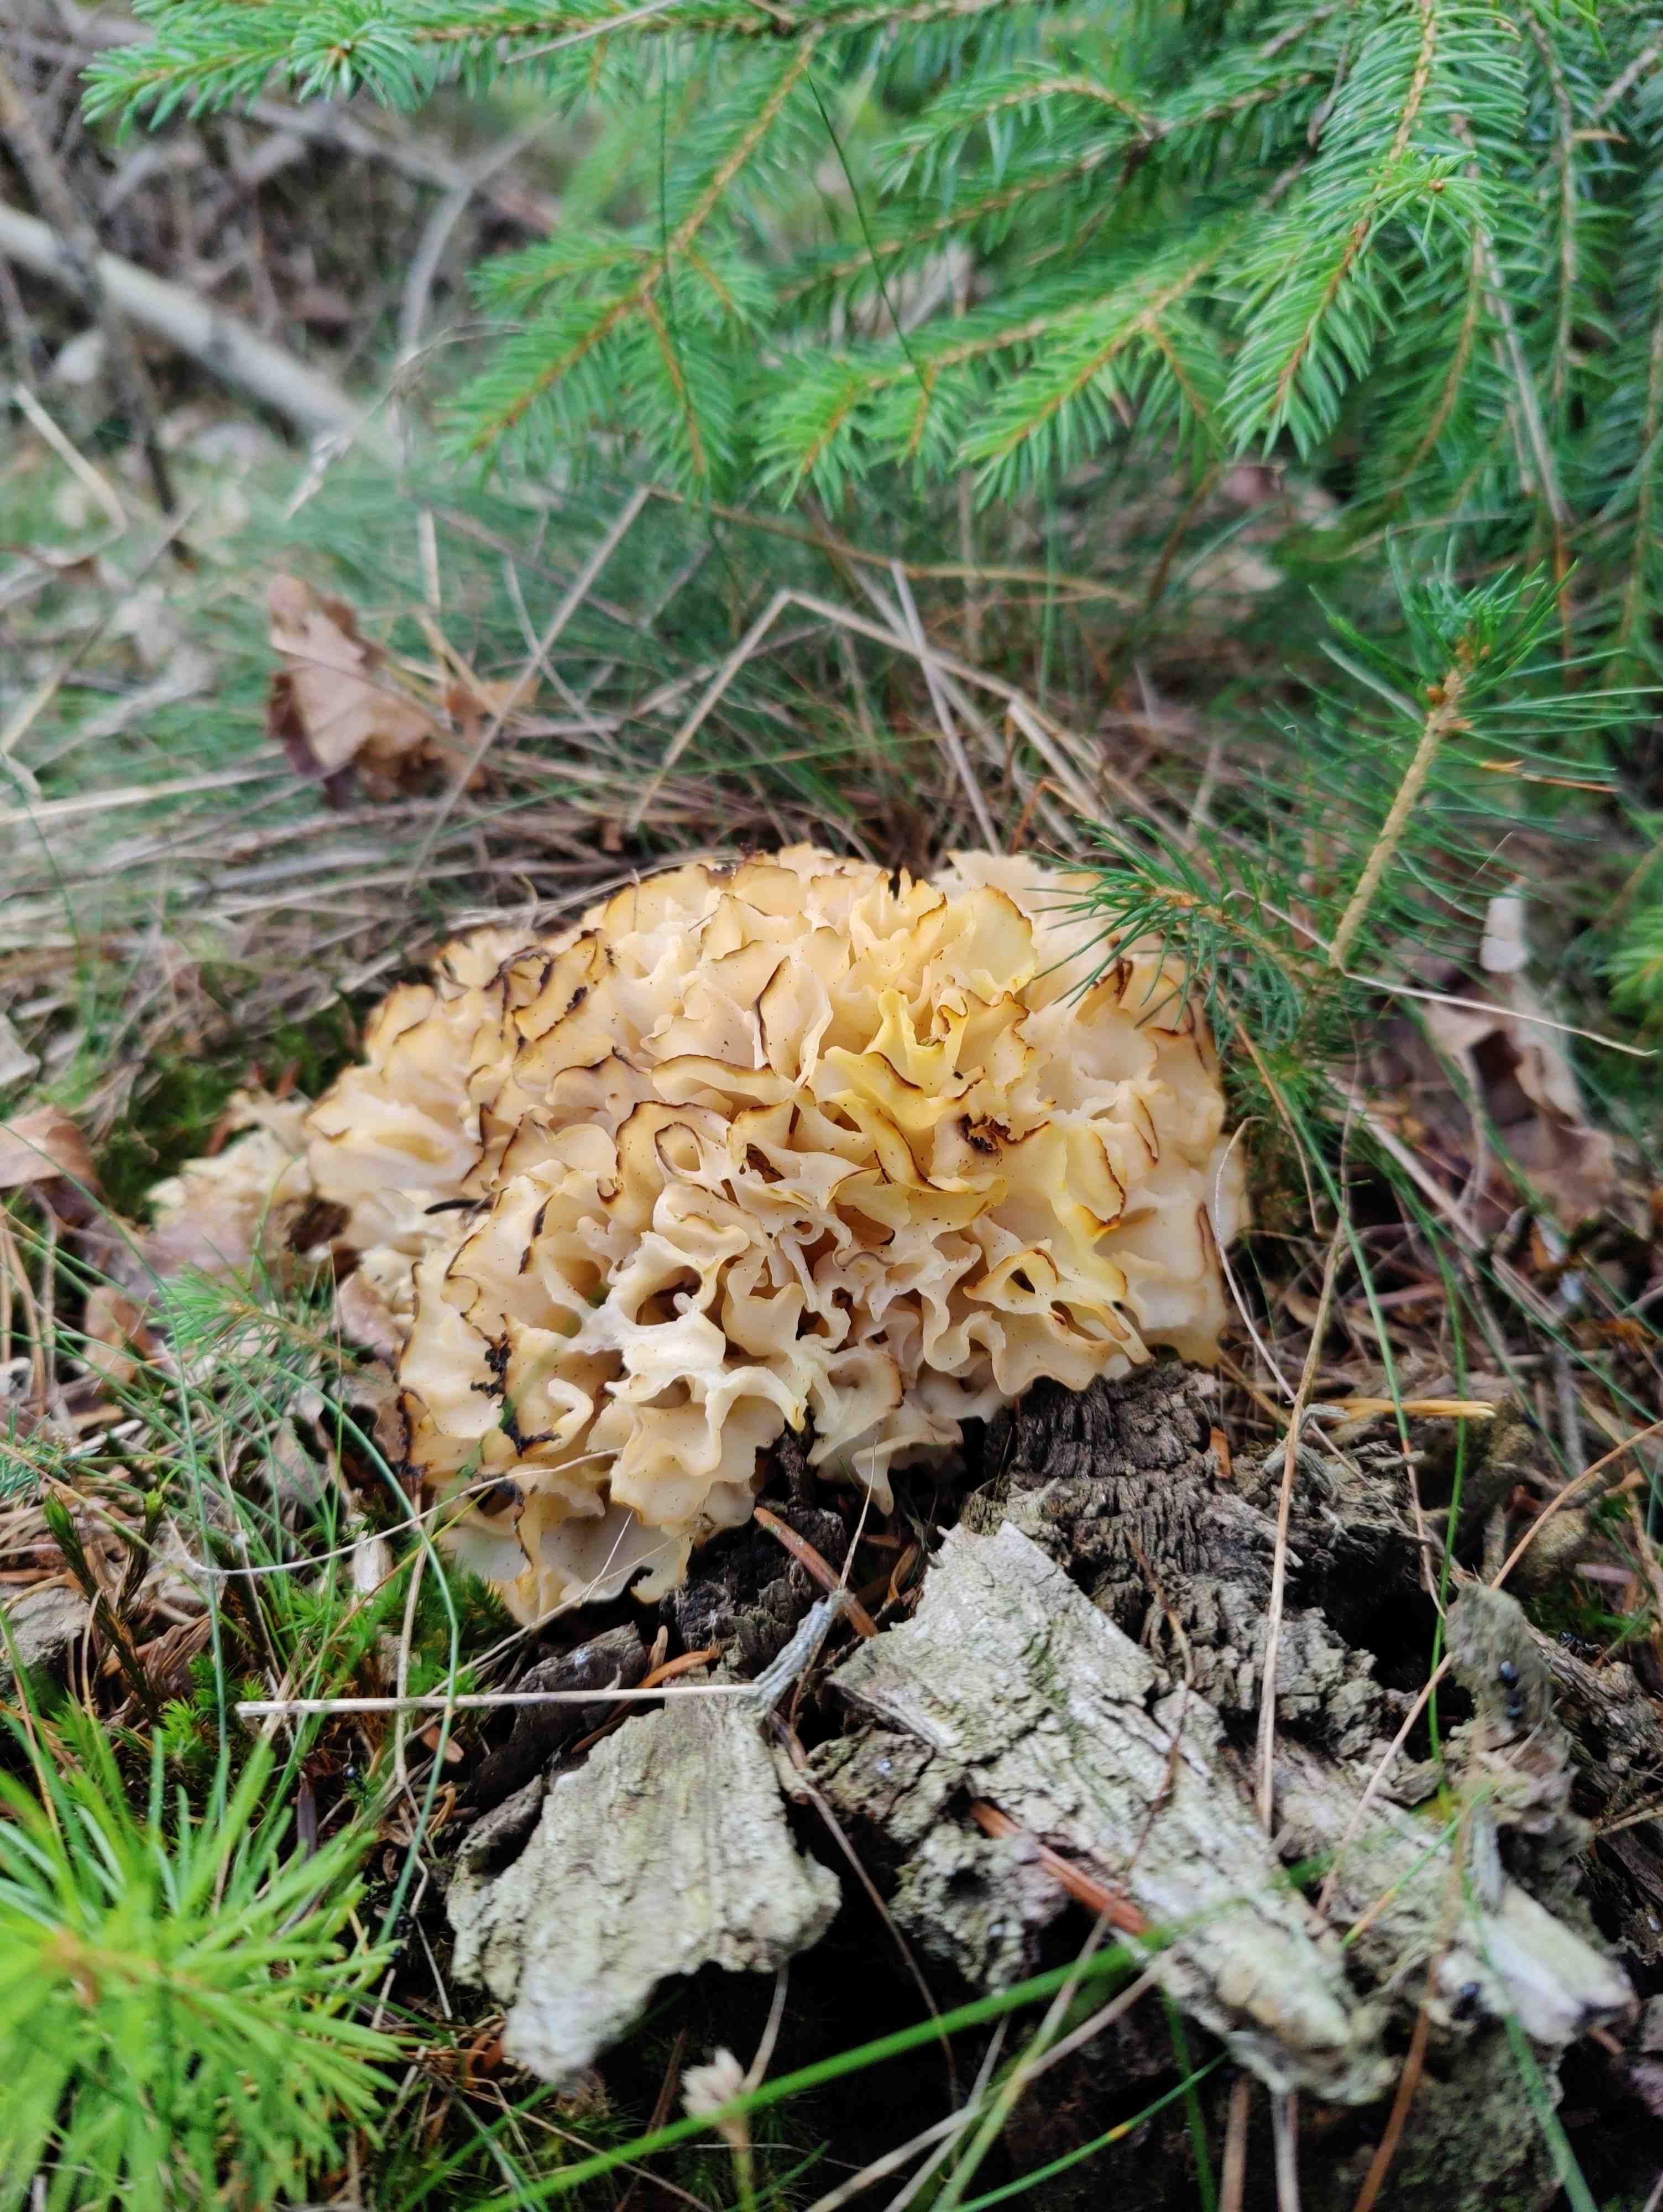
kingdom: Fungi
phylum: Basidiomycota
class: Agaricomycetes
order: Polyporales
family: Sparassidaceae
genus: Sparassis
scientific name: Sparassis crispa
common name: kruset blomkålssvamp
